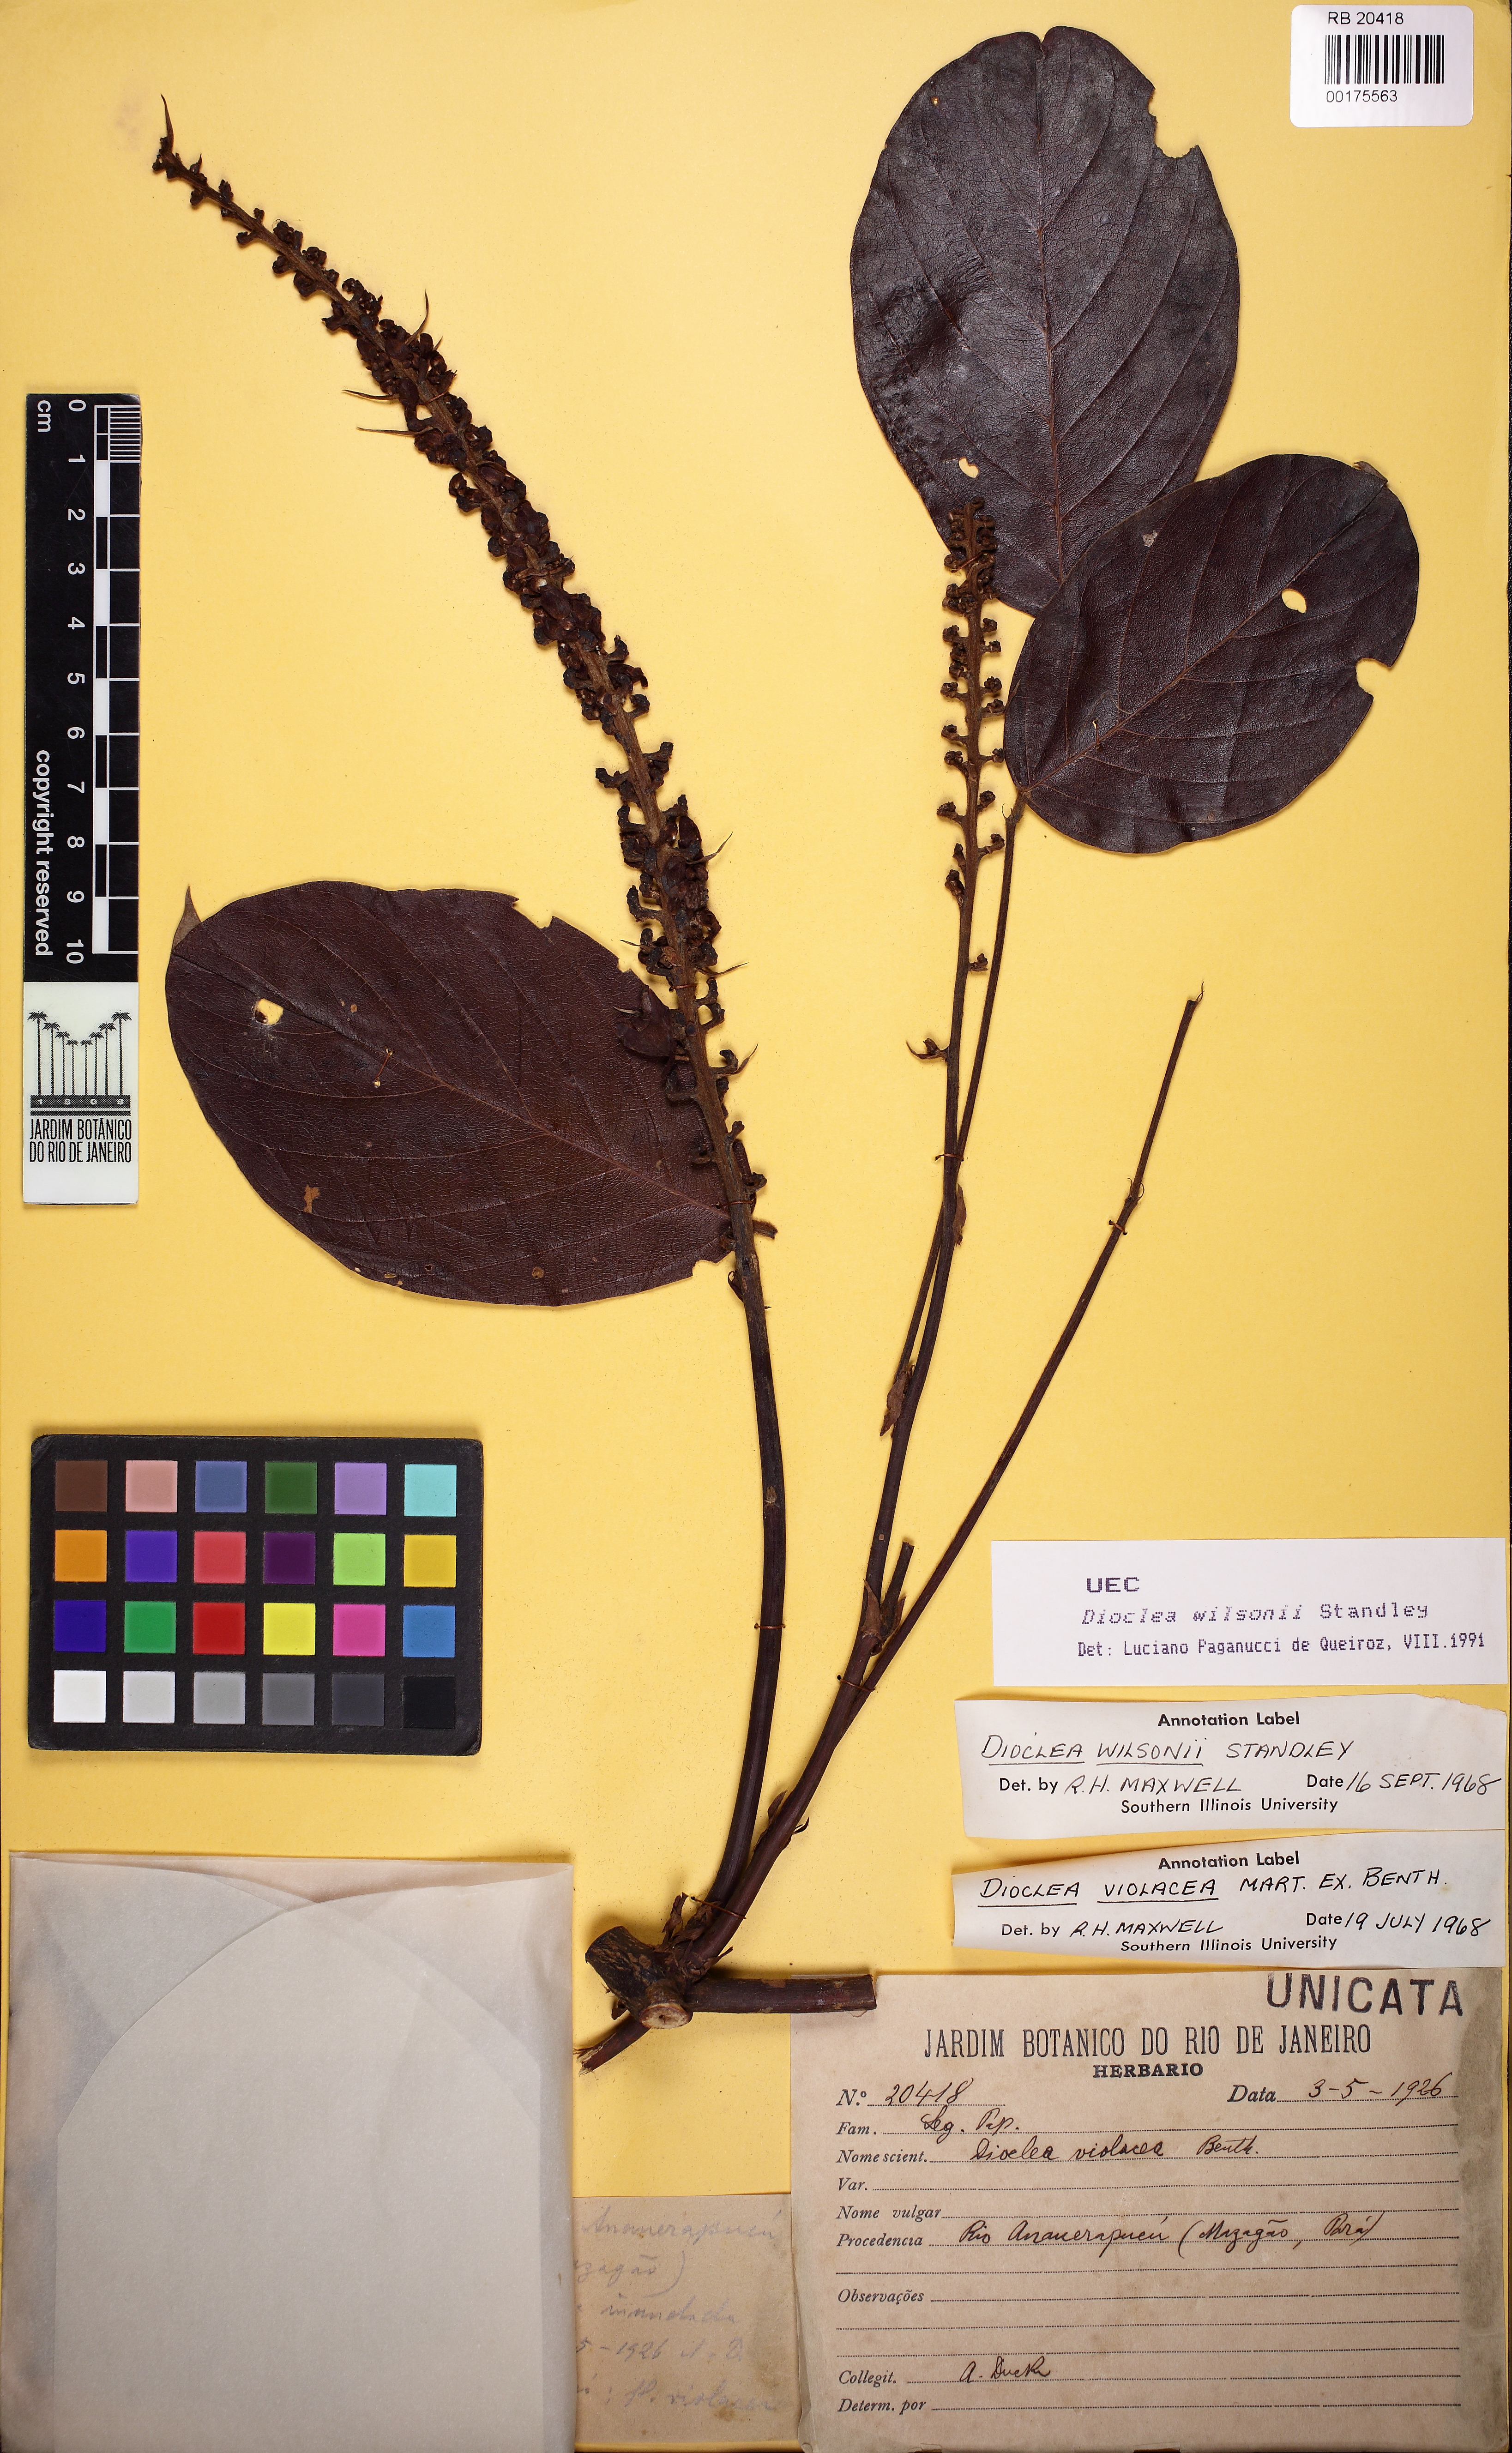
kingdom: Plantae
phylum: Tracheophyta
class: Magnoliopsida
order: Fabales
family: Fabaceae
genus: Macropsychanthus
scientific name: Macropsychanthus wilsonii
